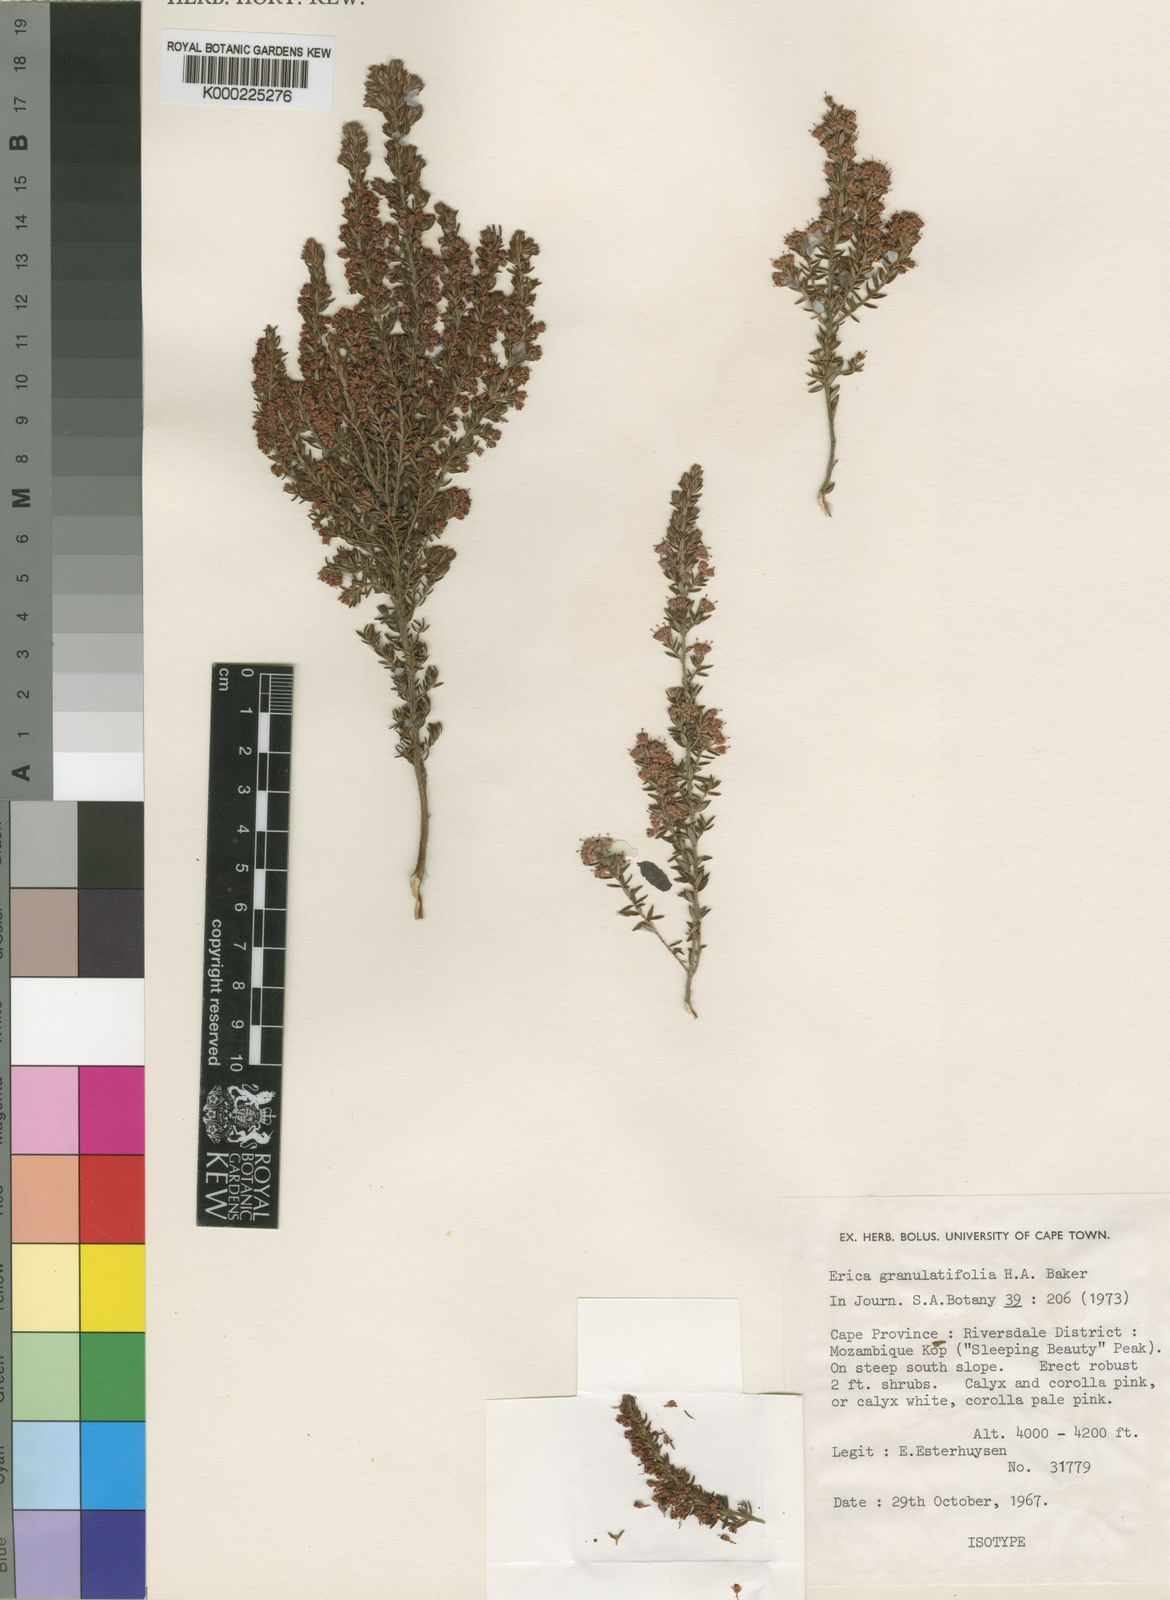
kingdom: Plantae
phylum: Tracheophyta
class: Magnoliopsida
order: Ericales
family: Ericaceae
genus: Erica
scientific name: Erica granulatifolia
